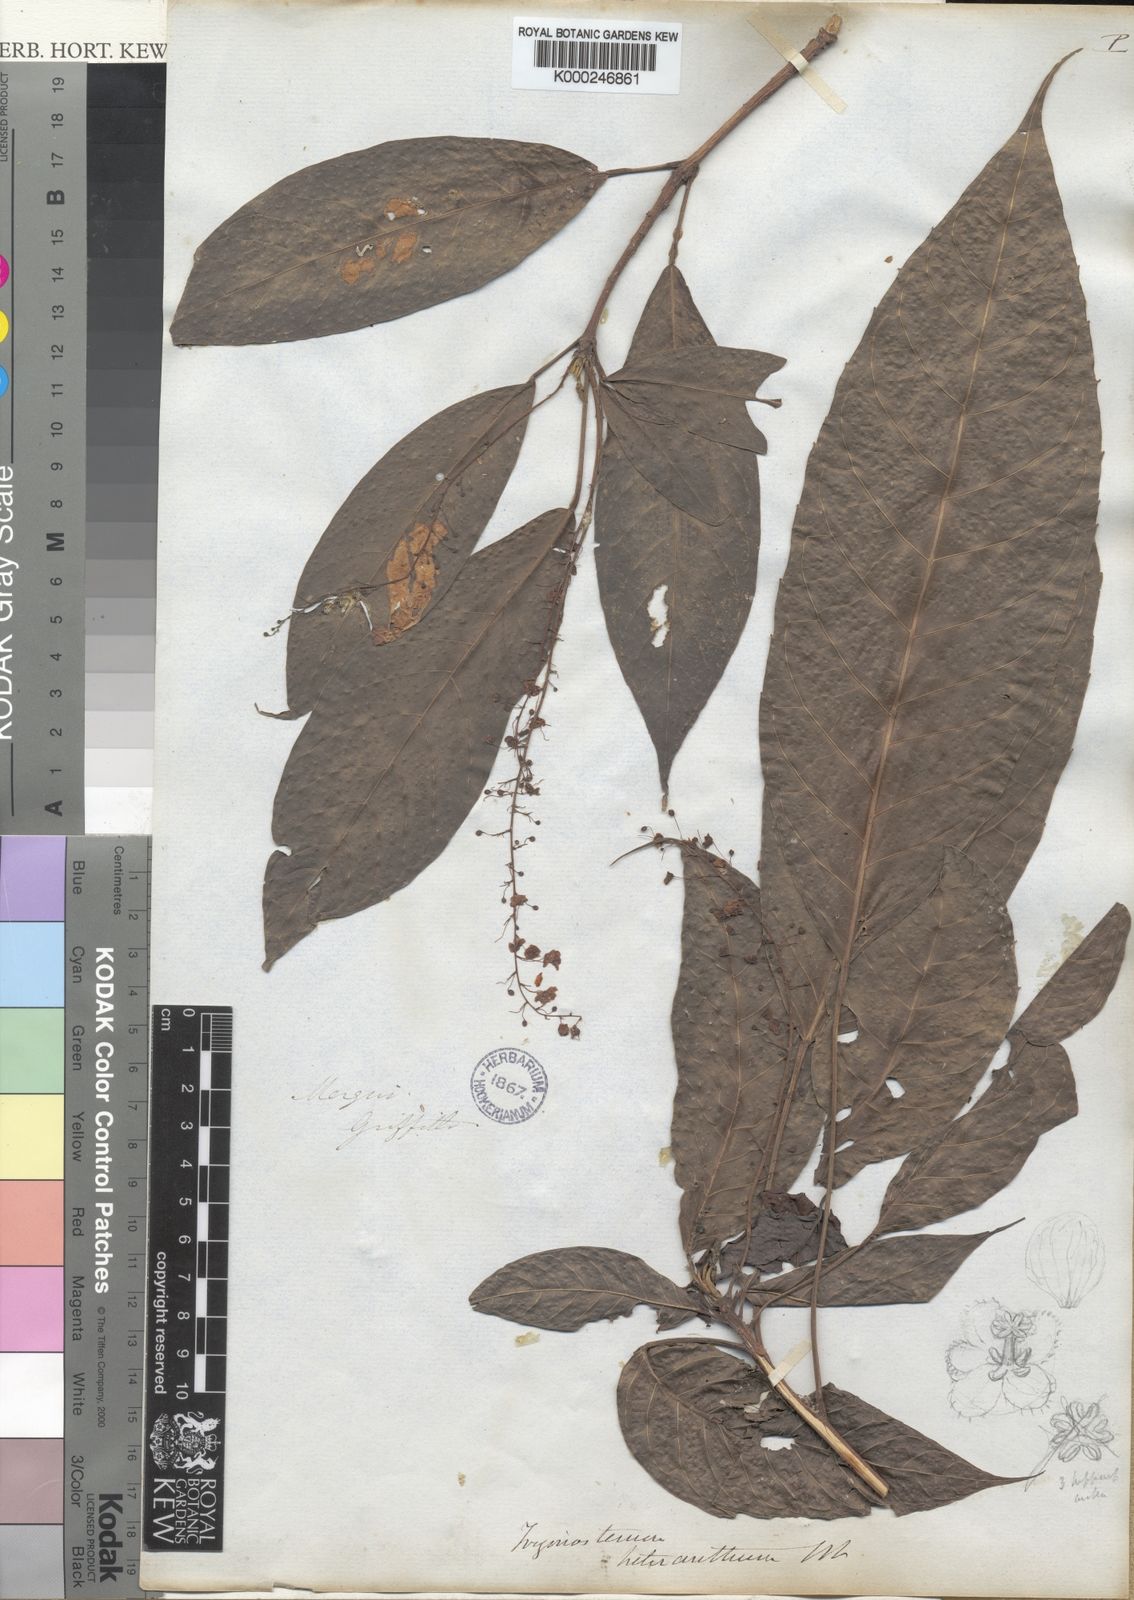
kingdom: Plantae
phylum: Tracheophyta
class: Magnoliopsida
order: Malpighiales
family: Euphorbiaceae
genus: Trigonostemon
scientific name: Trigonostemon heteranthus
